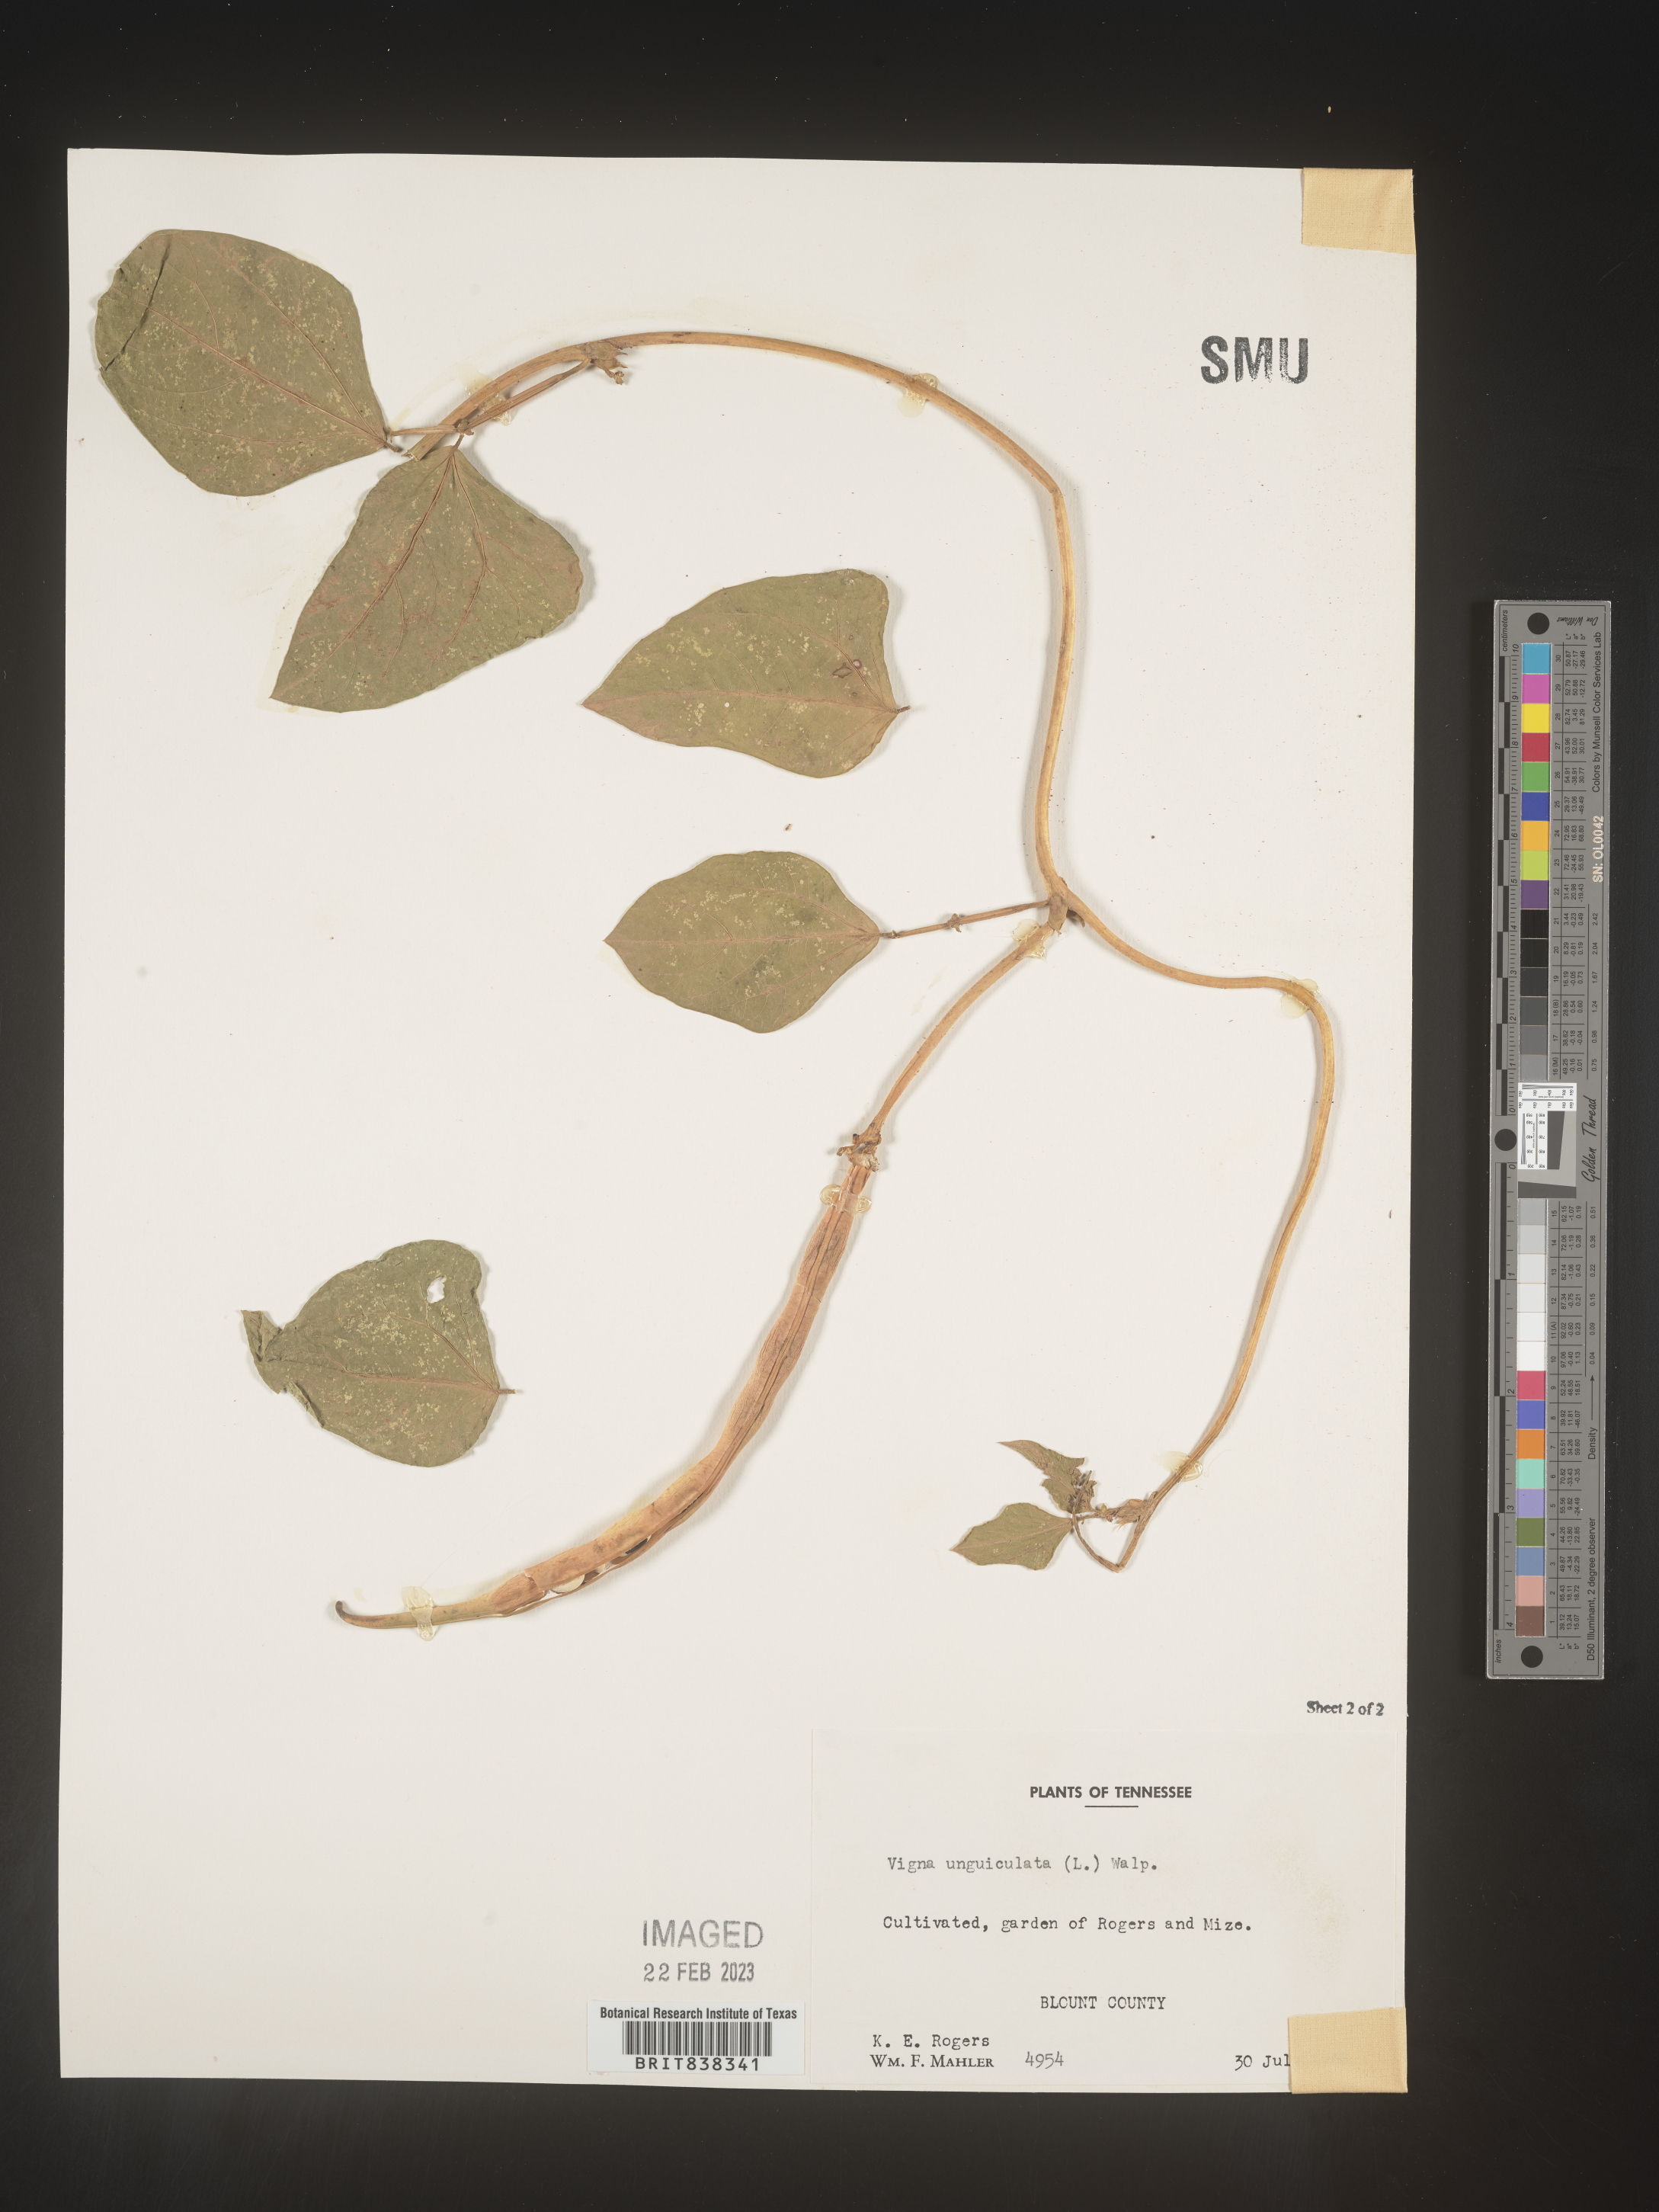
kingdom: Plantae
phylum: Tracheophyta
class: Magnoliopsida
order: Fabales
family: Fabaceae
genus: Vigna
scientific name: Vigna
